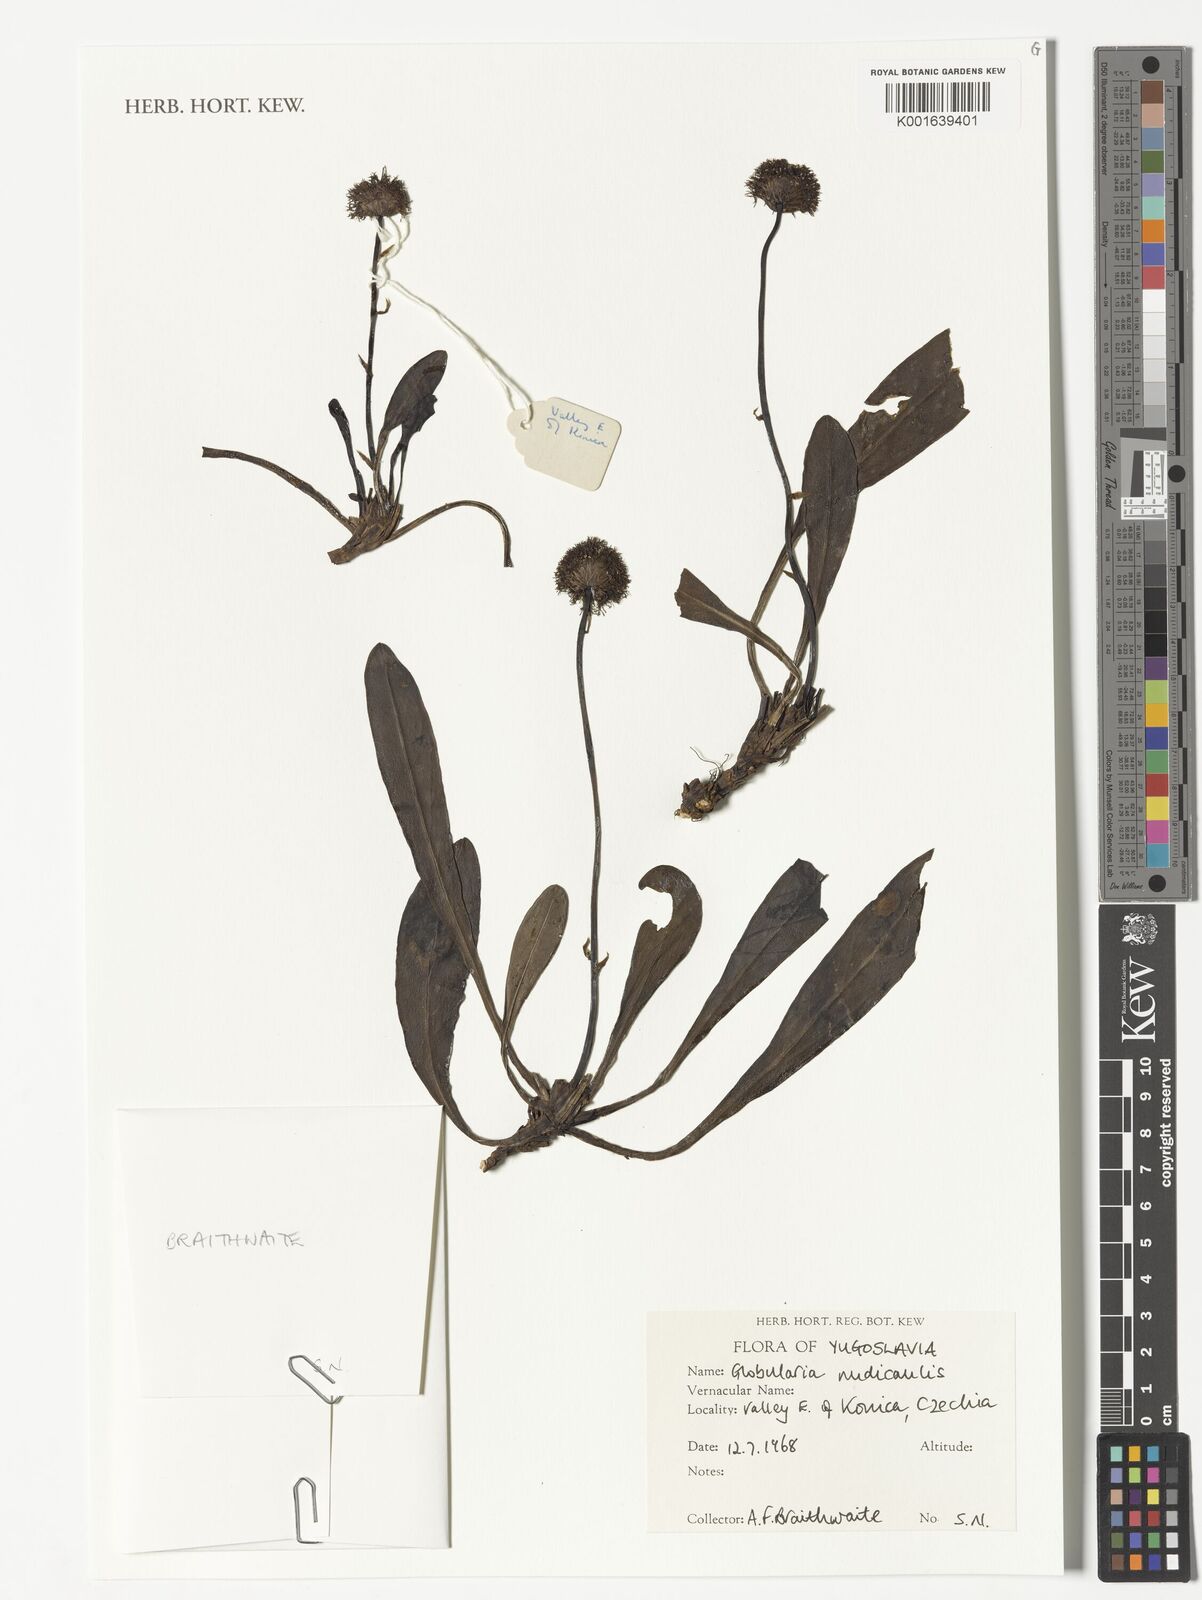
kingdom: Plantae
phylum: Tracheophyta
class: Magnoliopsida
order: Lamiales
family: Plantaginaceae
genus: Globularia
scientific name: Globularia nudicaulis
